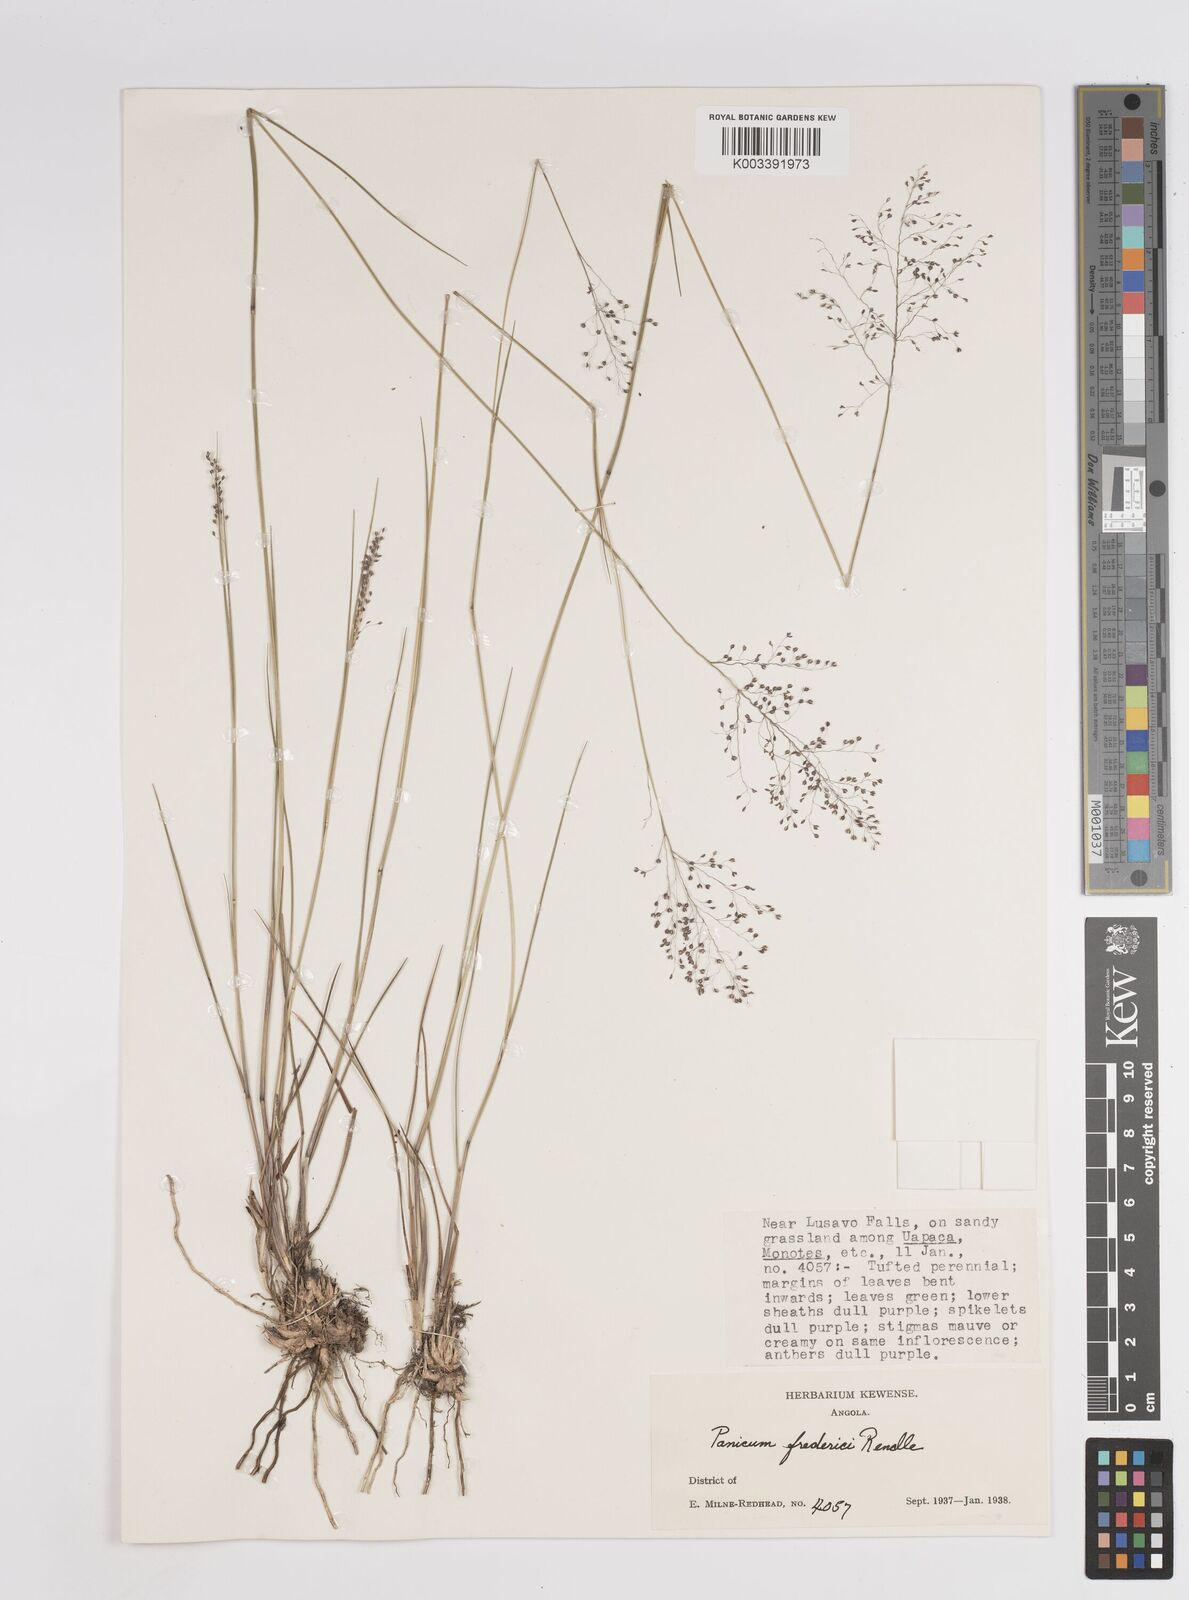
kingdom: Plantae
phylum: Tracheophyta
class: Liliopsida
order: Poales
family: Poaceae
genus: Trichanthecium
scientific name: Trichanthecium brazzavillense
